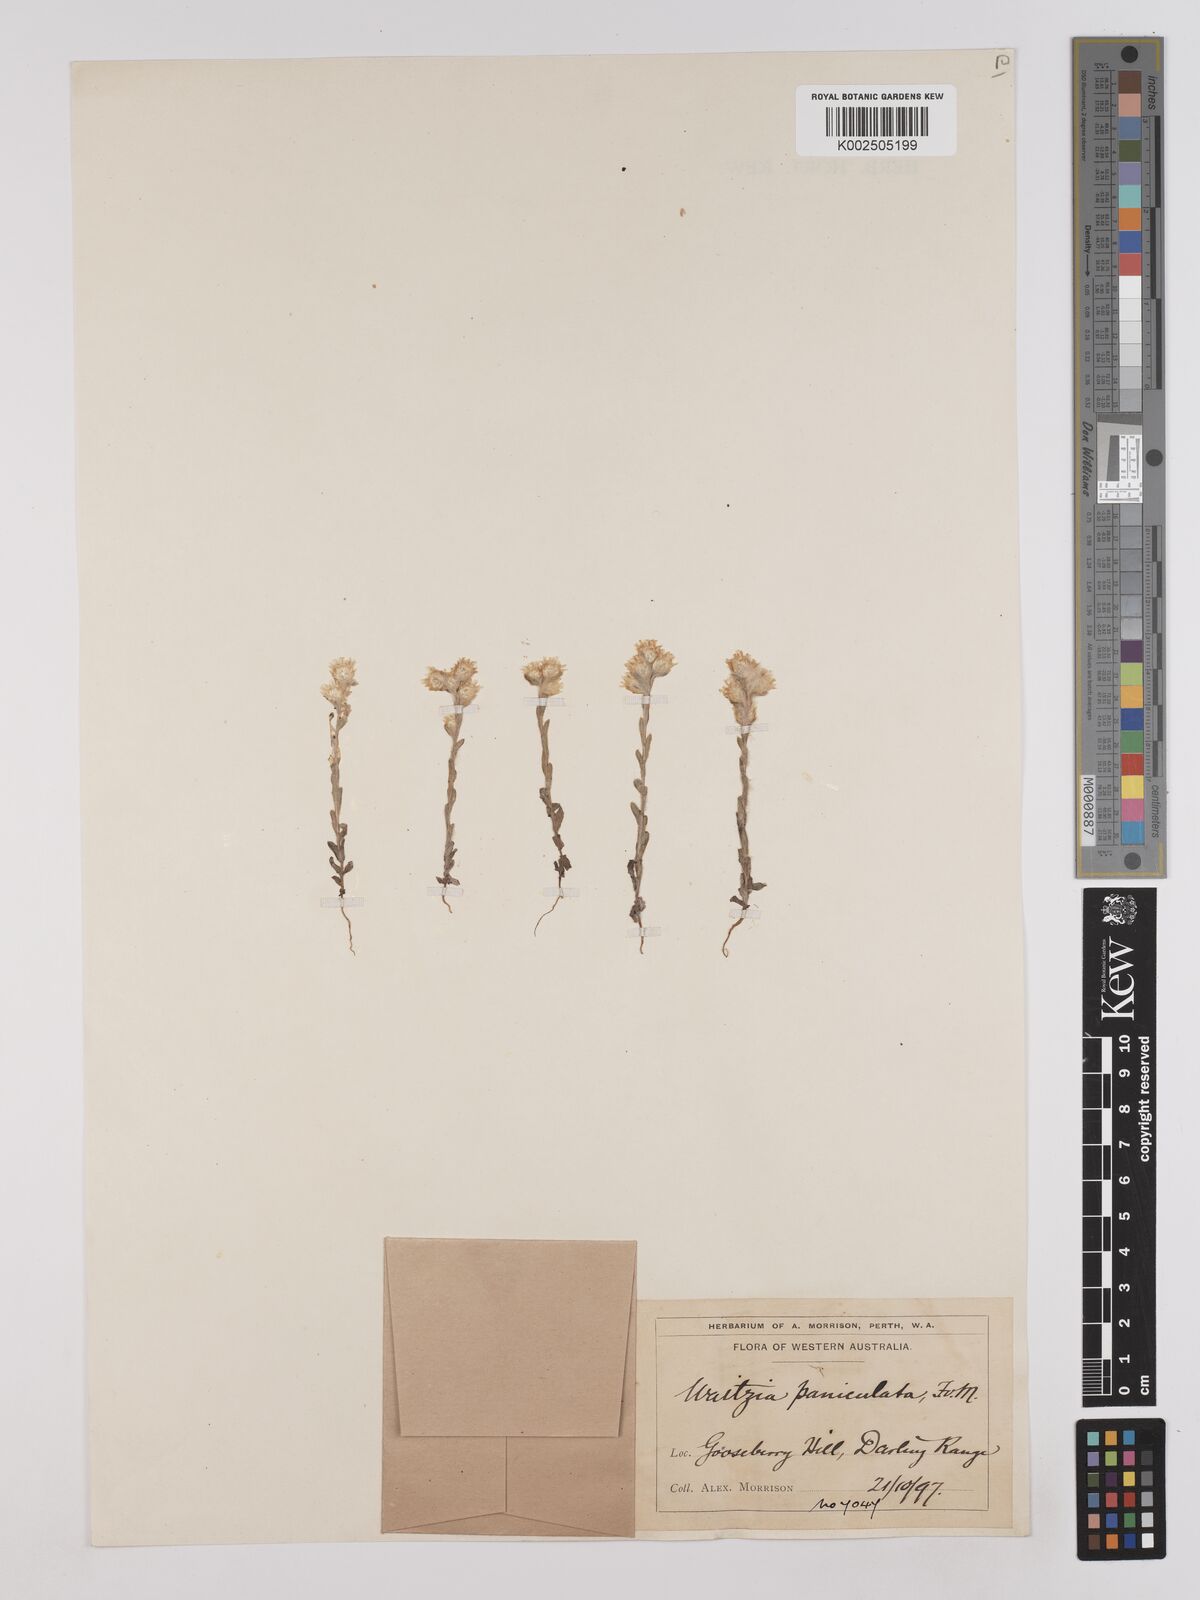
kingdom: Plantae
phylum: Tracheophyta
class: Magnoliopsida
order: Asterales
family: Asteraceae
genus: Pterochaeta
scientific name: Pterochaeta paniculata
